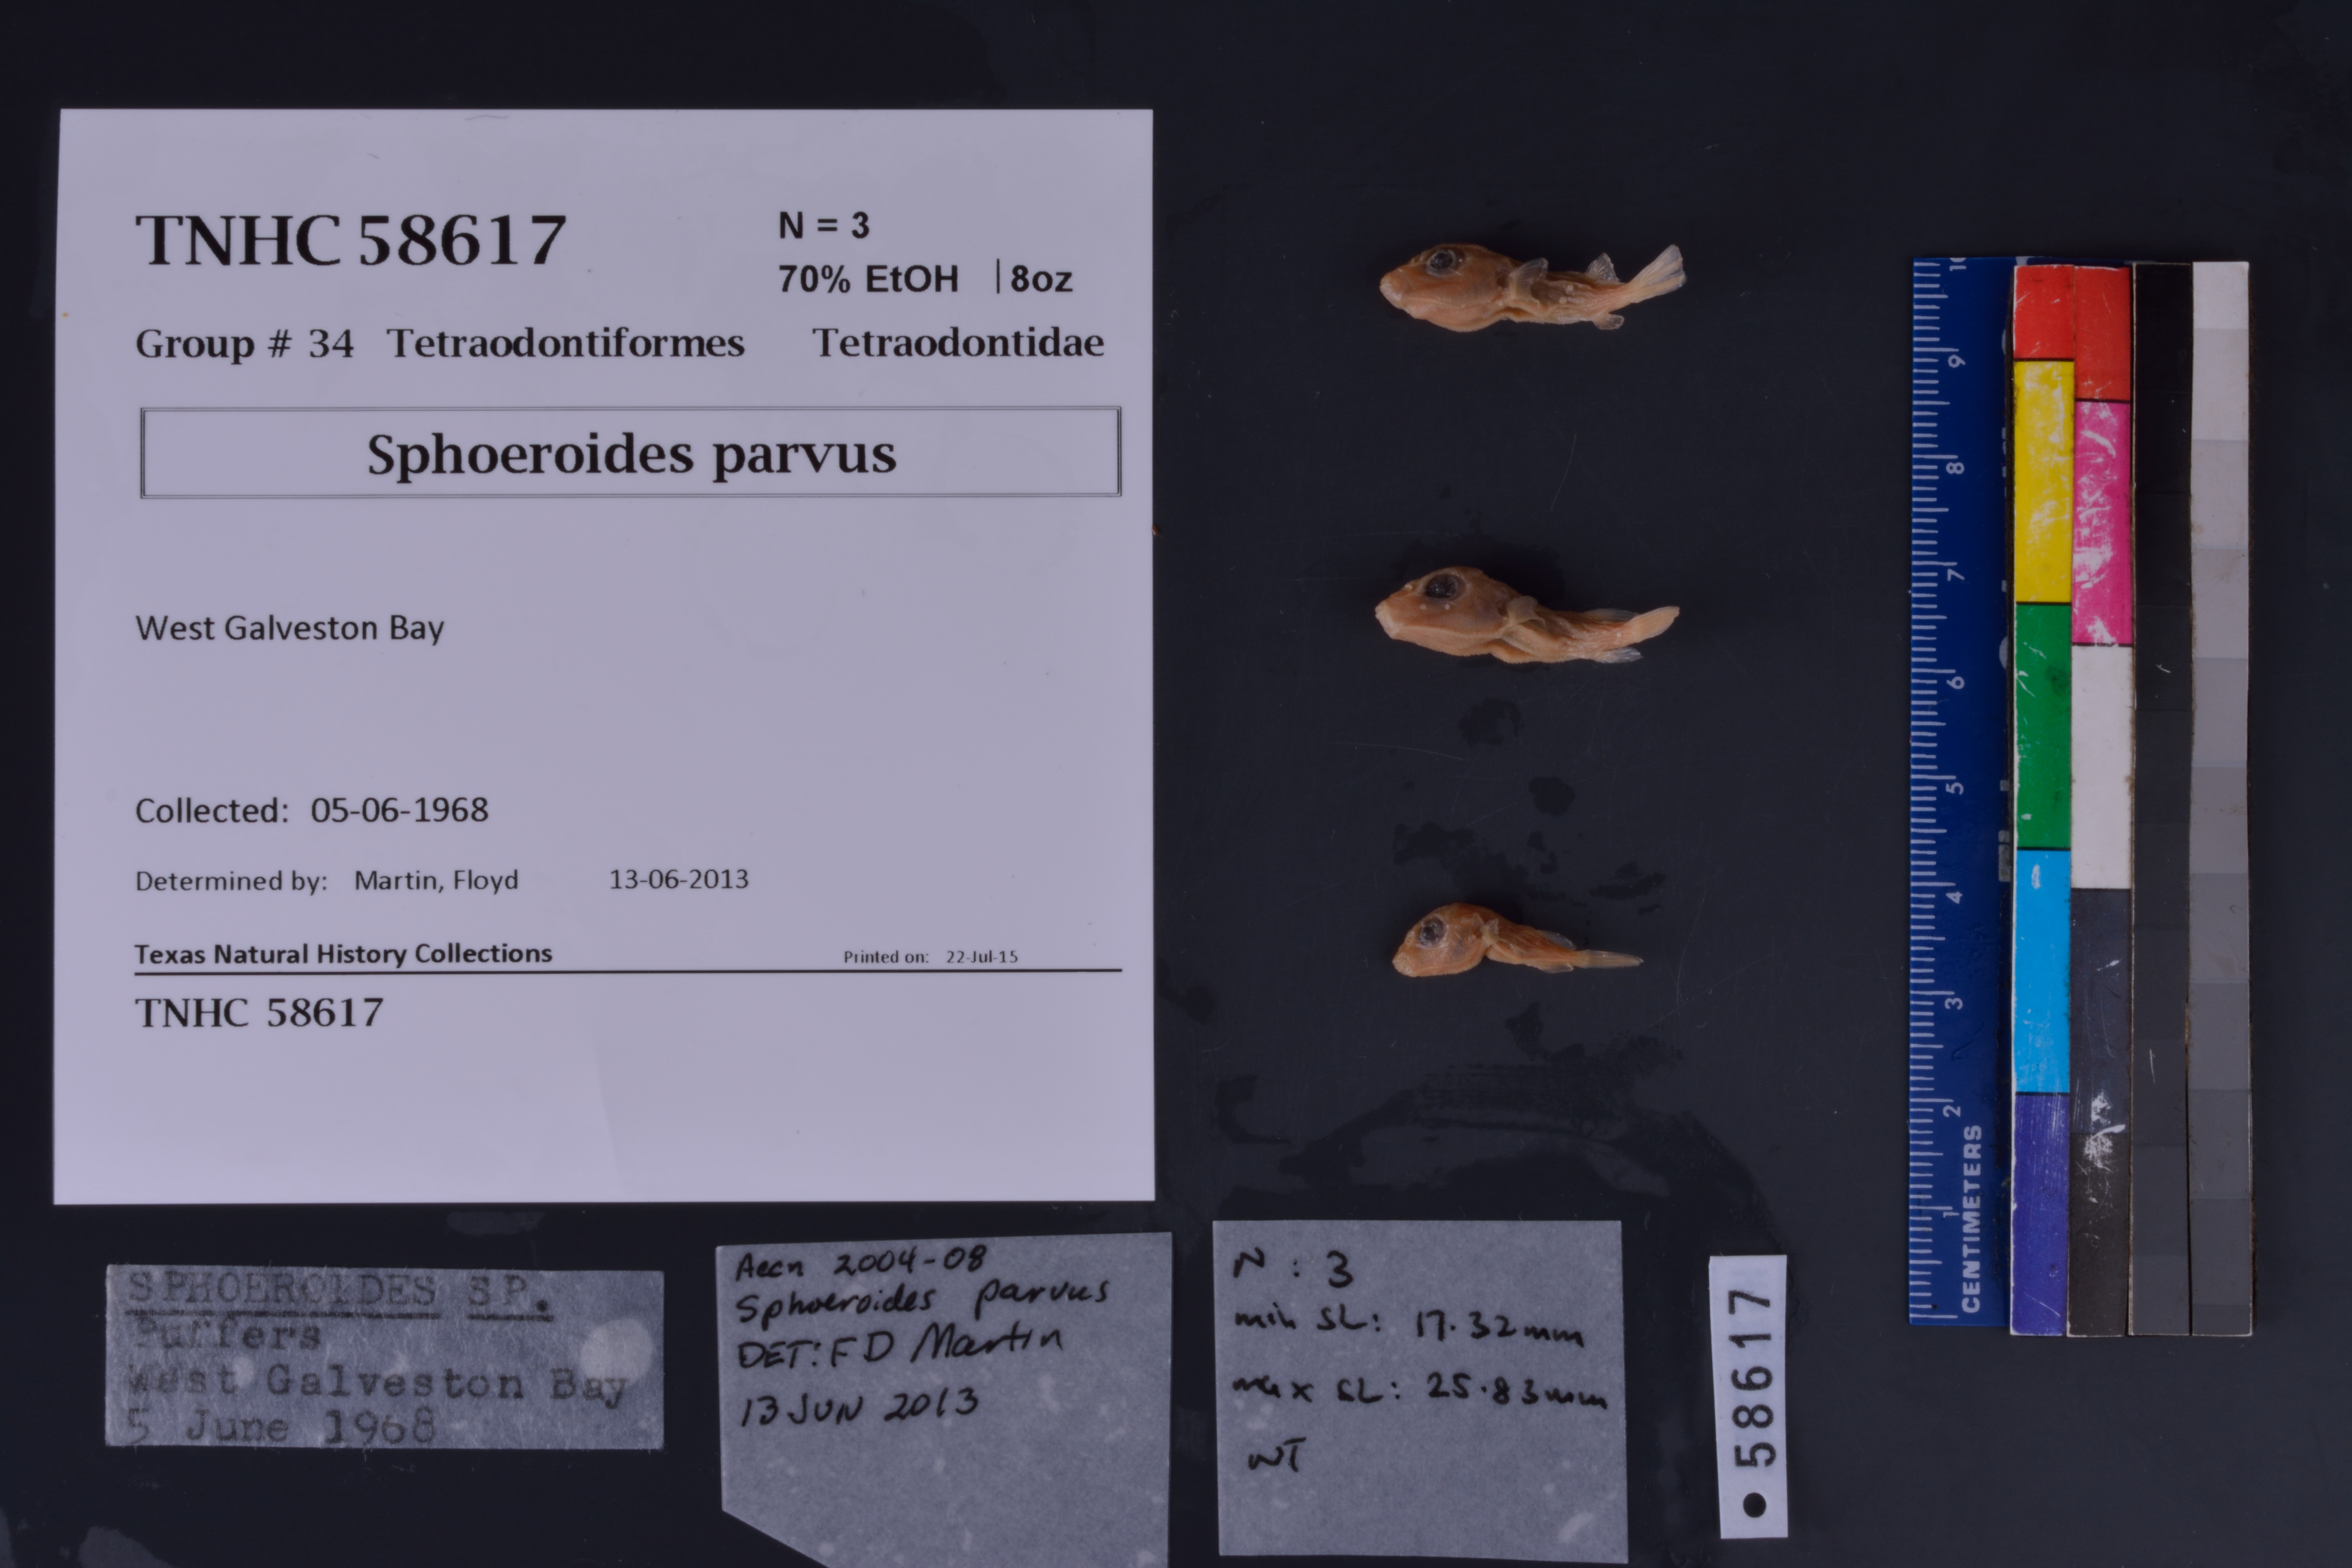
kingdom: Animalia
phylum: Chordata
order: Tetraodontiformes
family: Tetraodontidae
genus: Sphoeroides
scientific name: Sphoeroides parvus
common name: Least puffer
